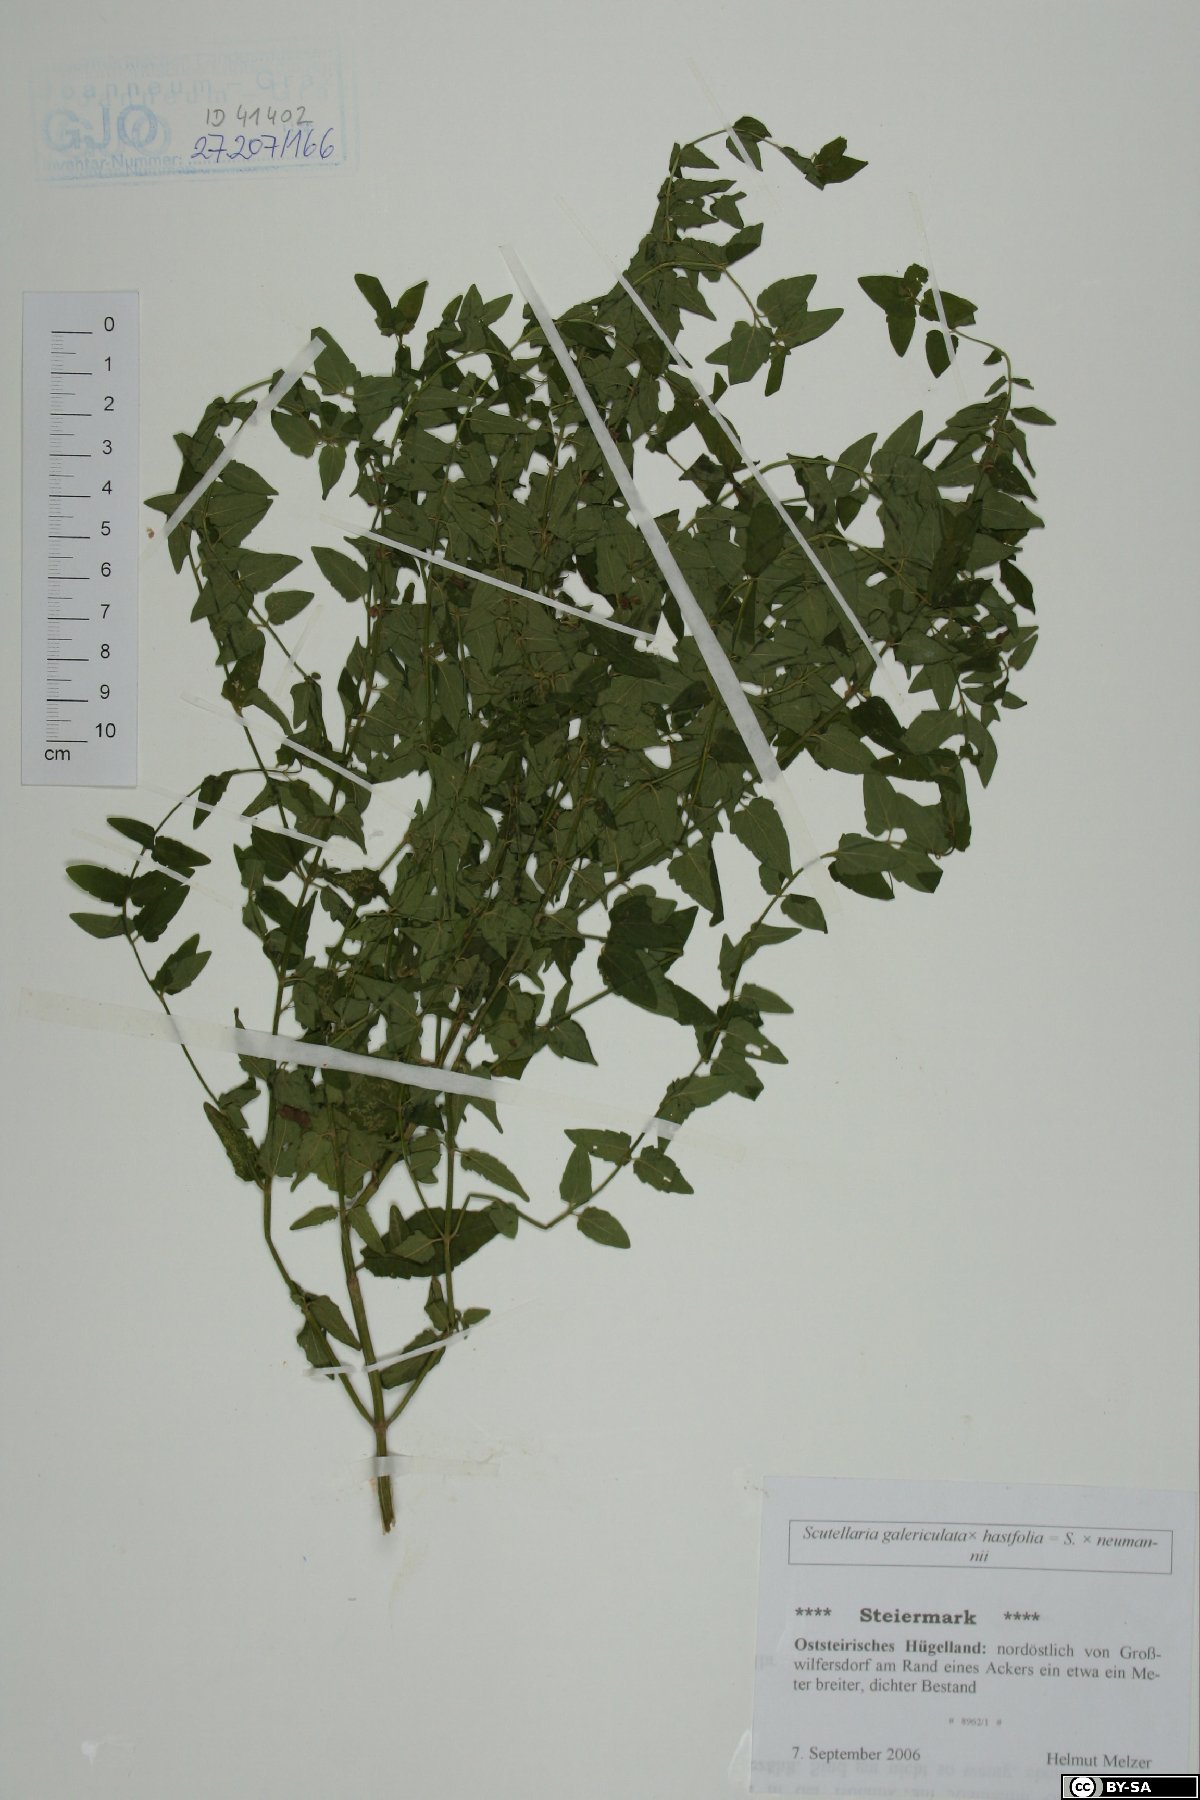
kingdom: Plantae
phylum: Tracheophyta
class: Magnoliopsida
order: Lamiales
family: Lamiaceae
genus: Scutellaria
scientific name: Scutellaria neumannii
